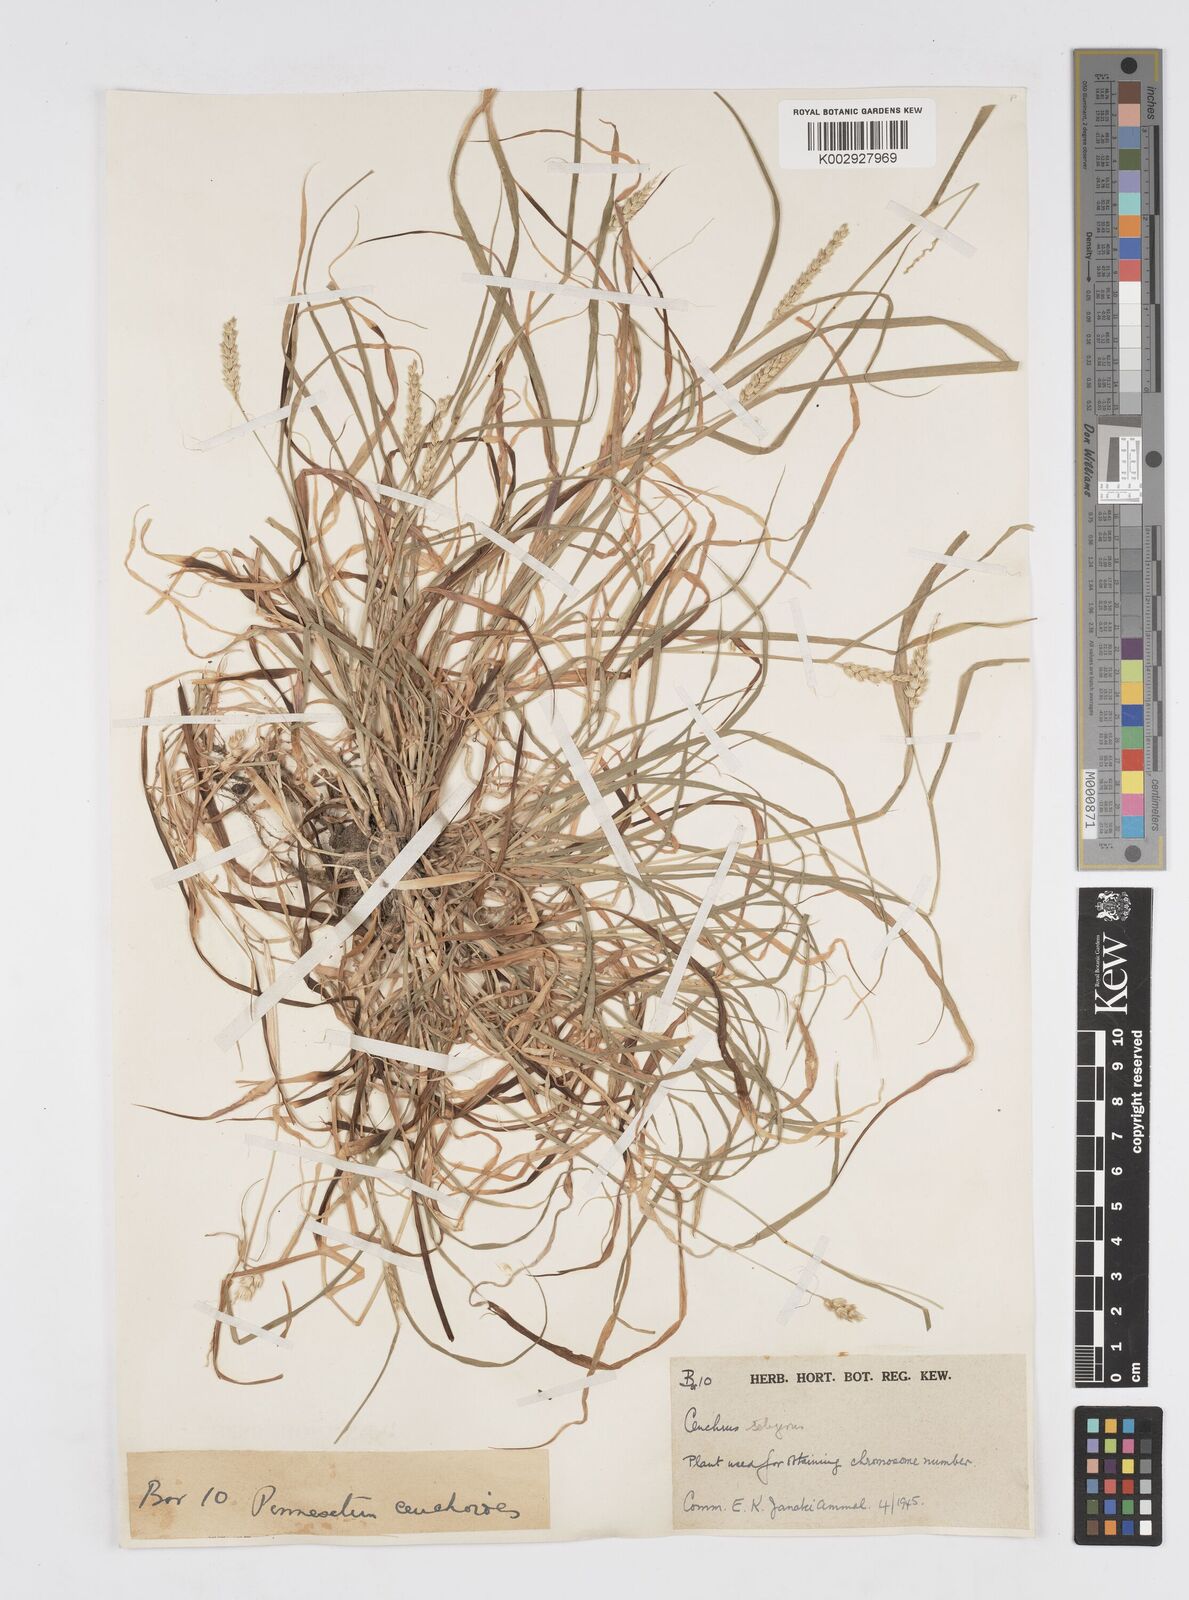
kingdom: Plantae
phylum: Tracheophyta
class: Liliopsida
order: Poales
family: Poaceae
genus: Cenchrus
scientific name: Cenchrus setigerus
